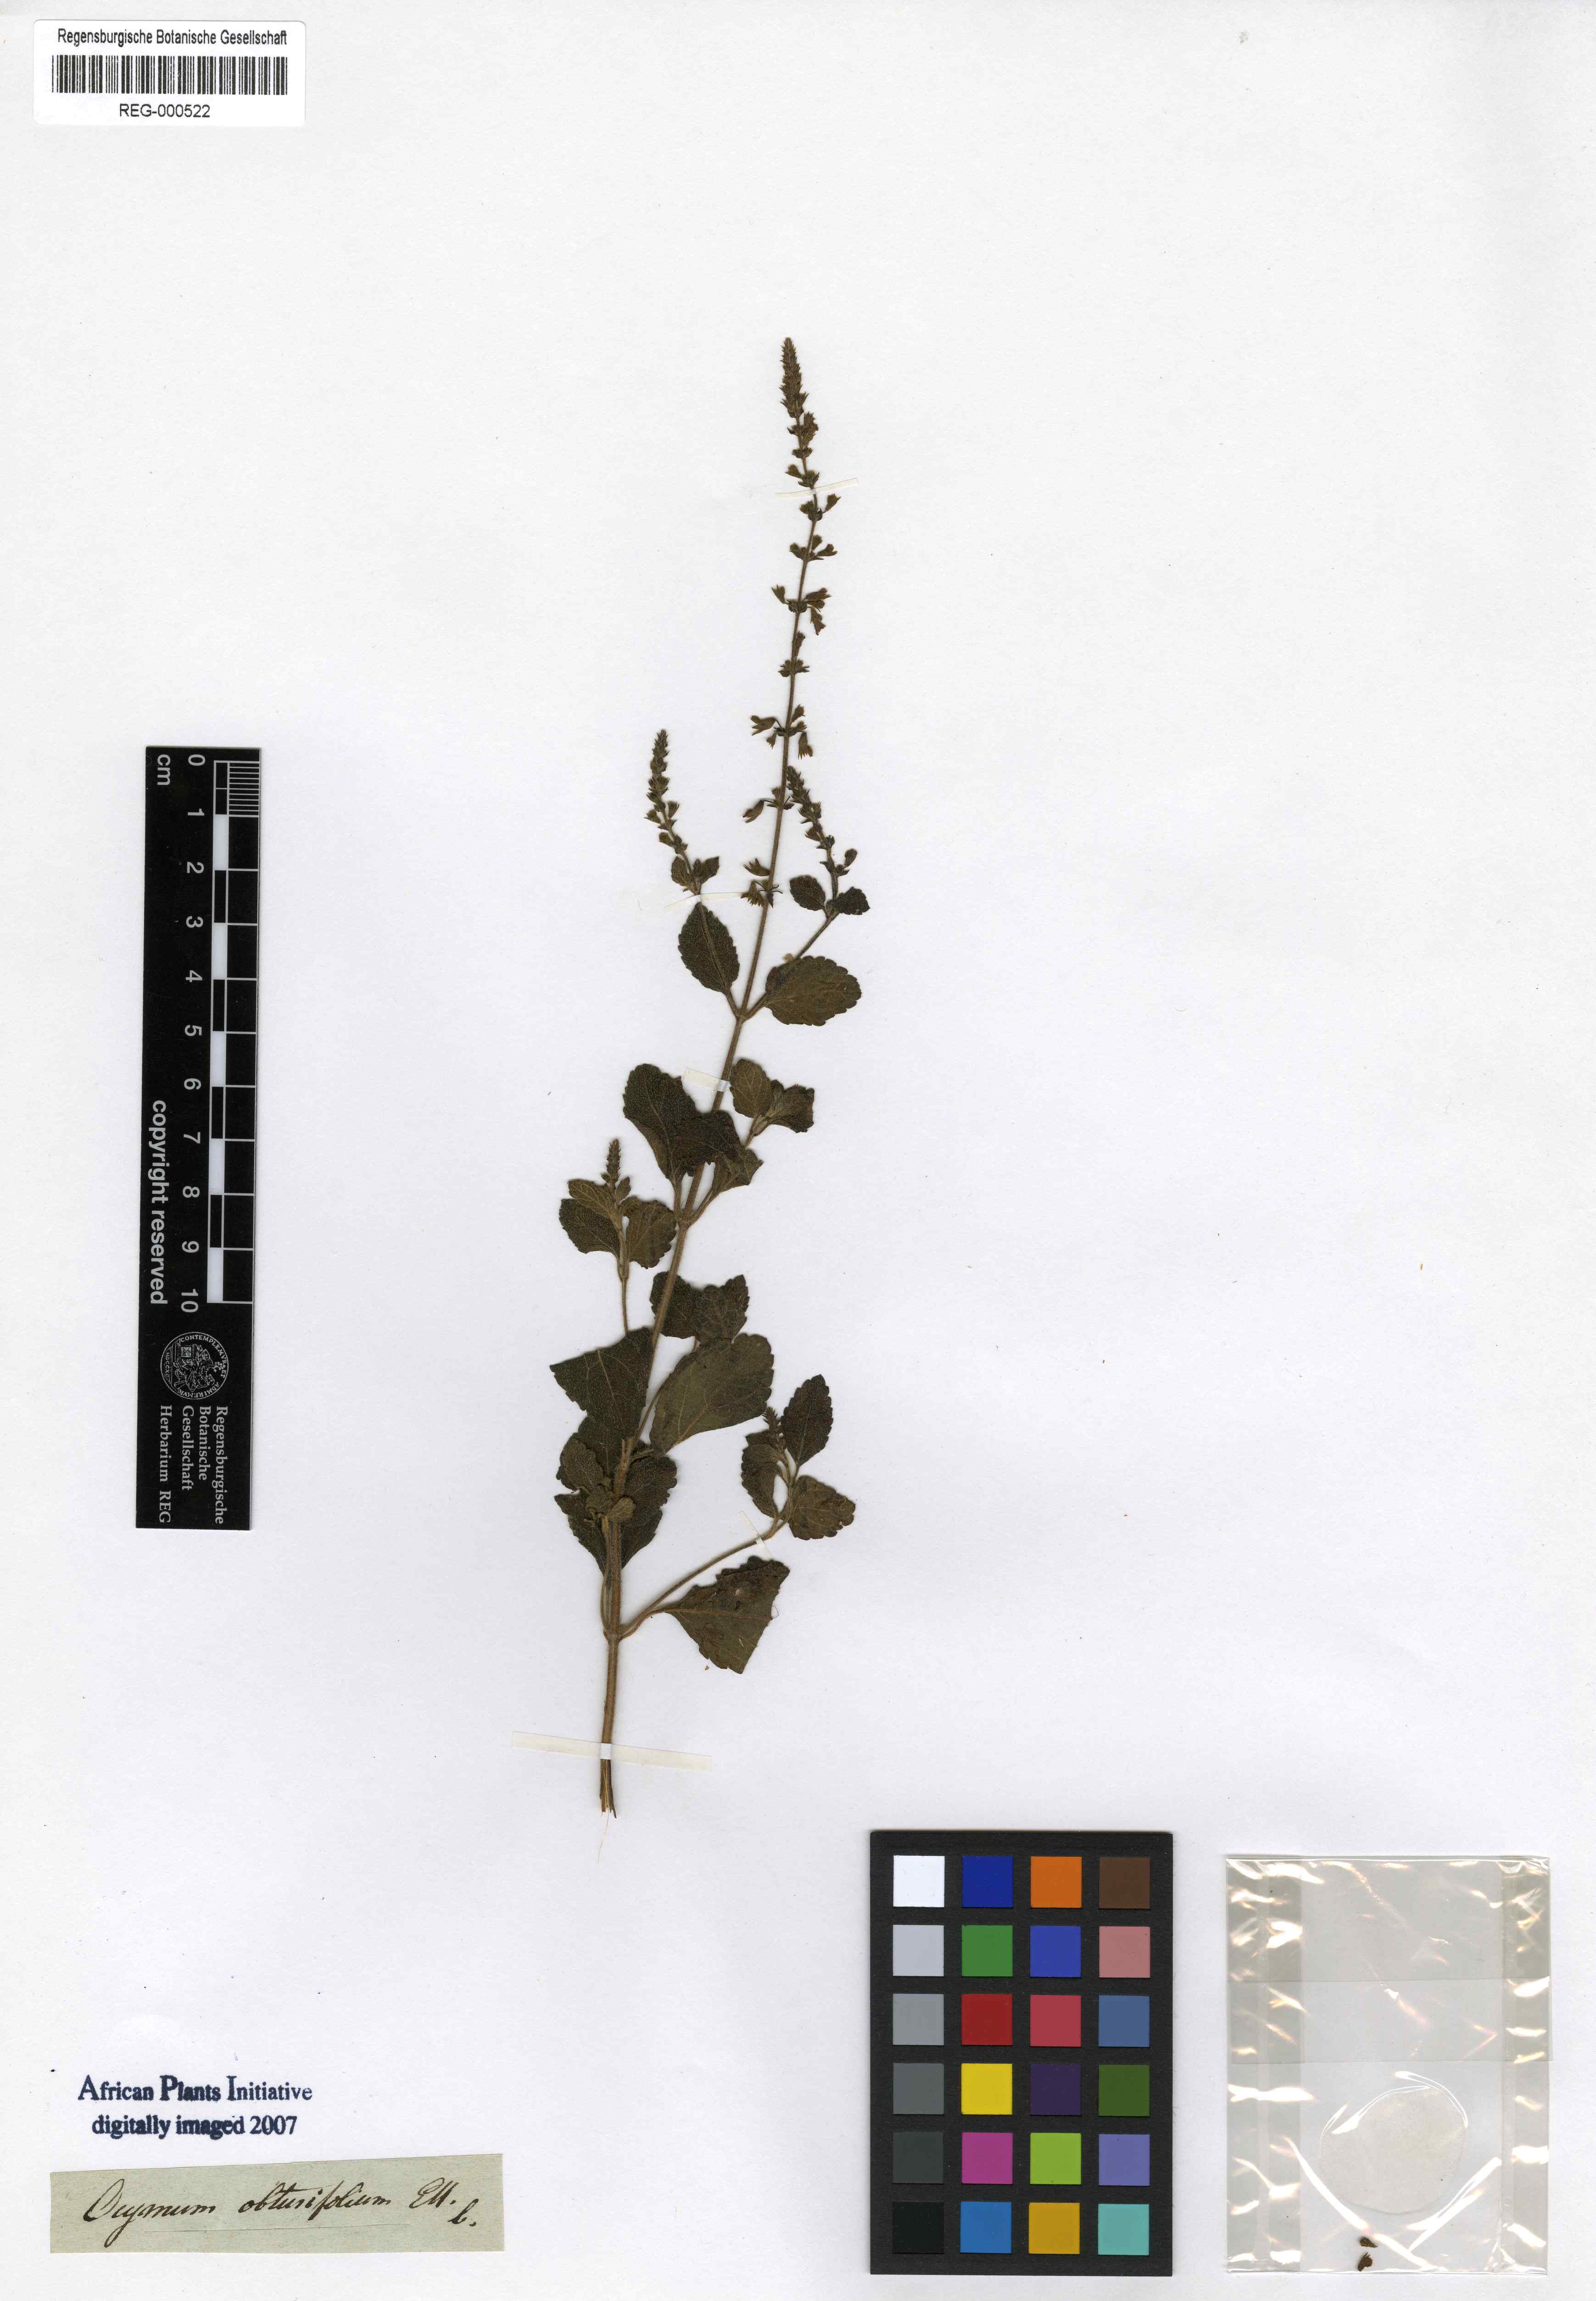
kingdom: Plantae
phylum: Tracheophyta
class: Magnoliopsida
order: Lamiales
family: Lamiaceae
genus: Endostemon
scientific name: Endostemon obtusifolius
